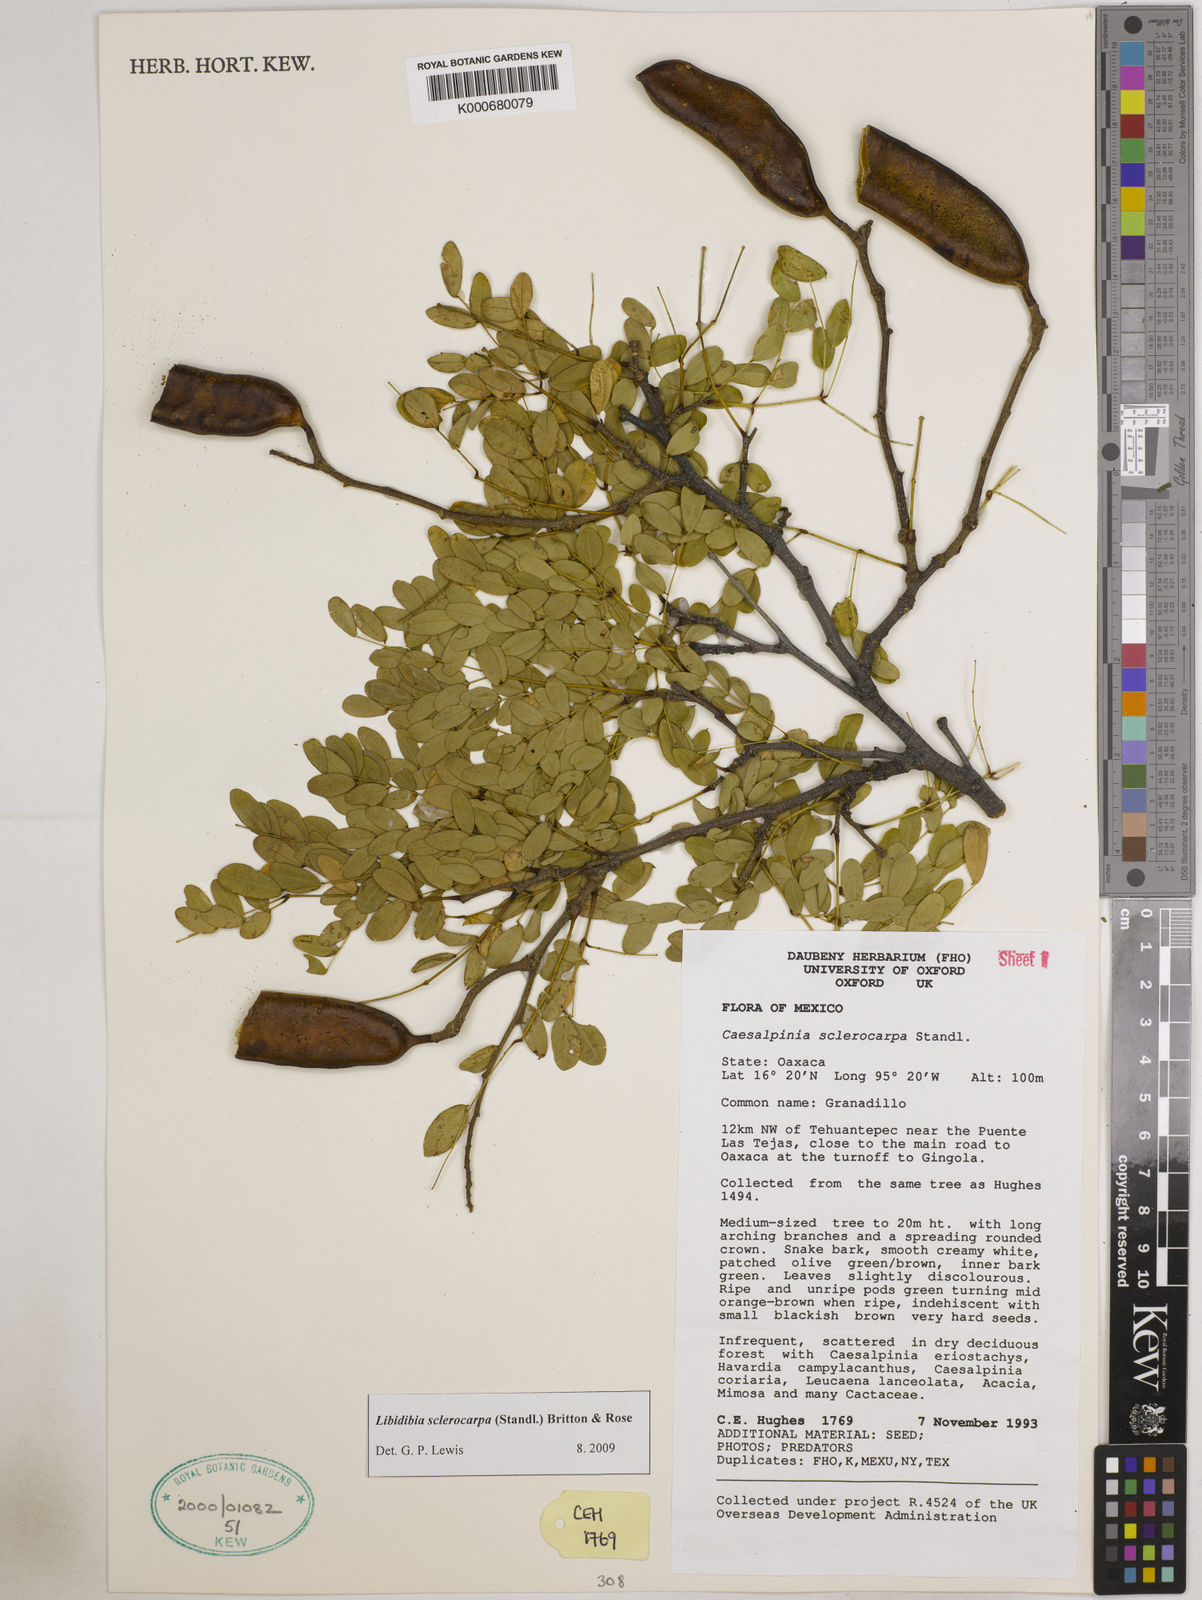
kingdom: Plantae
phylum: Tracheophyta
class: Magnoliopsida
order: Fabales
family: Fabaceae
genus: Libidibia
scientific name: Libidibia sclerocarpa
